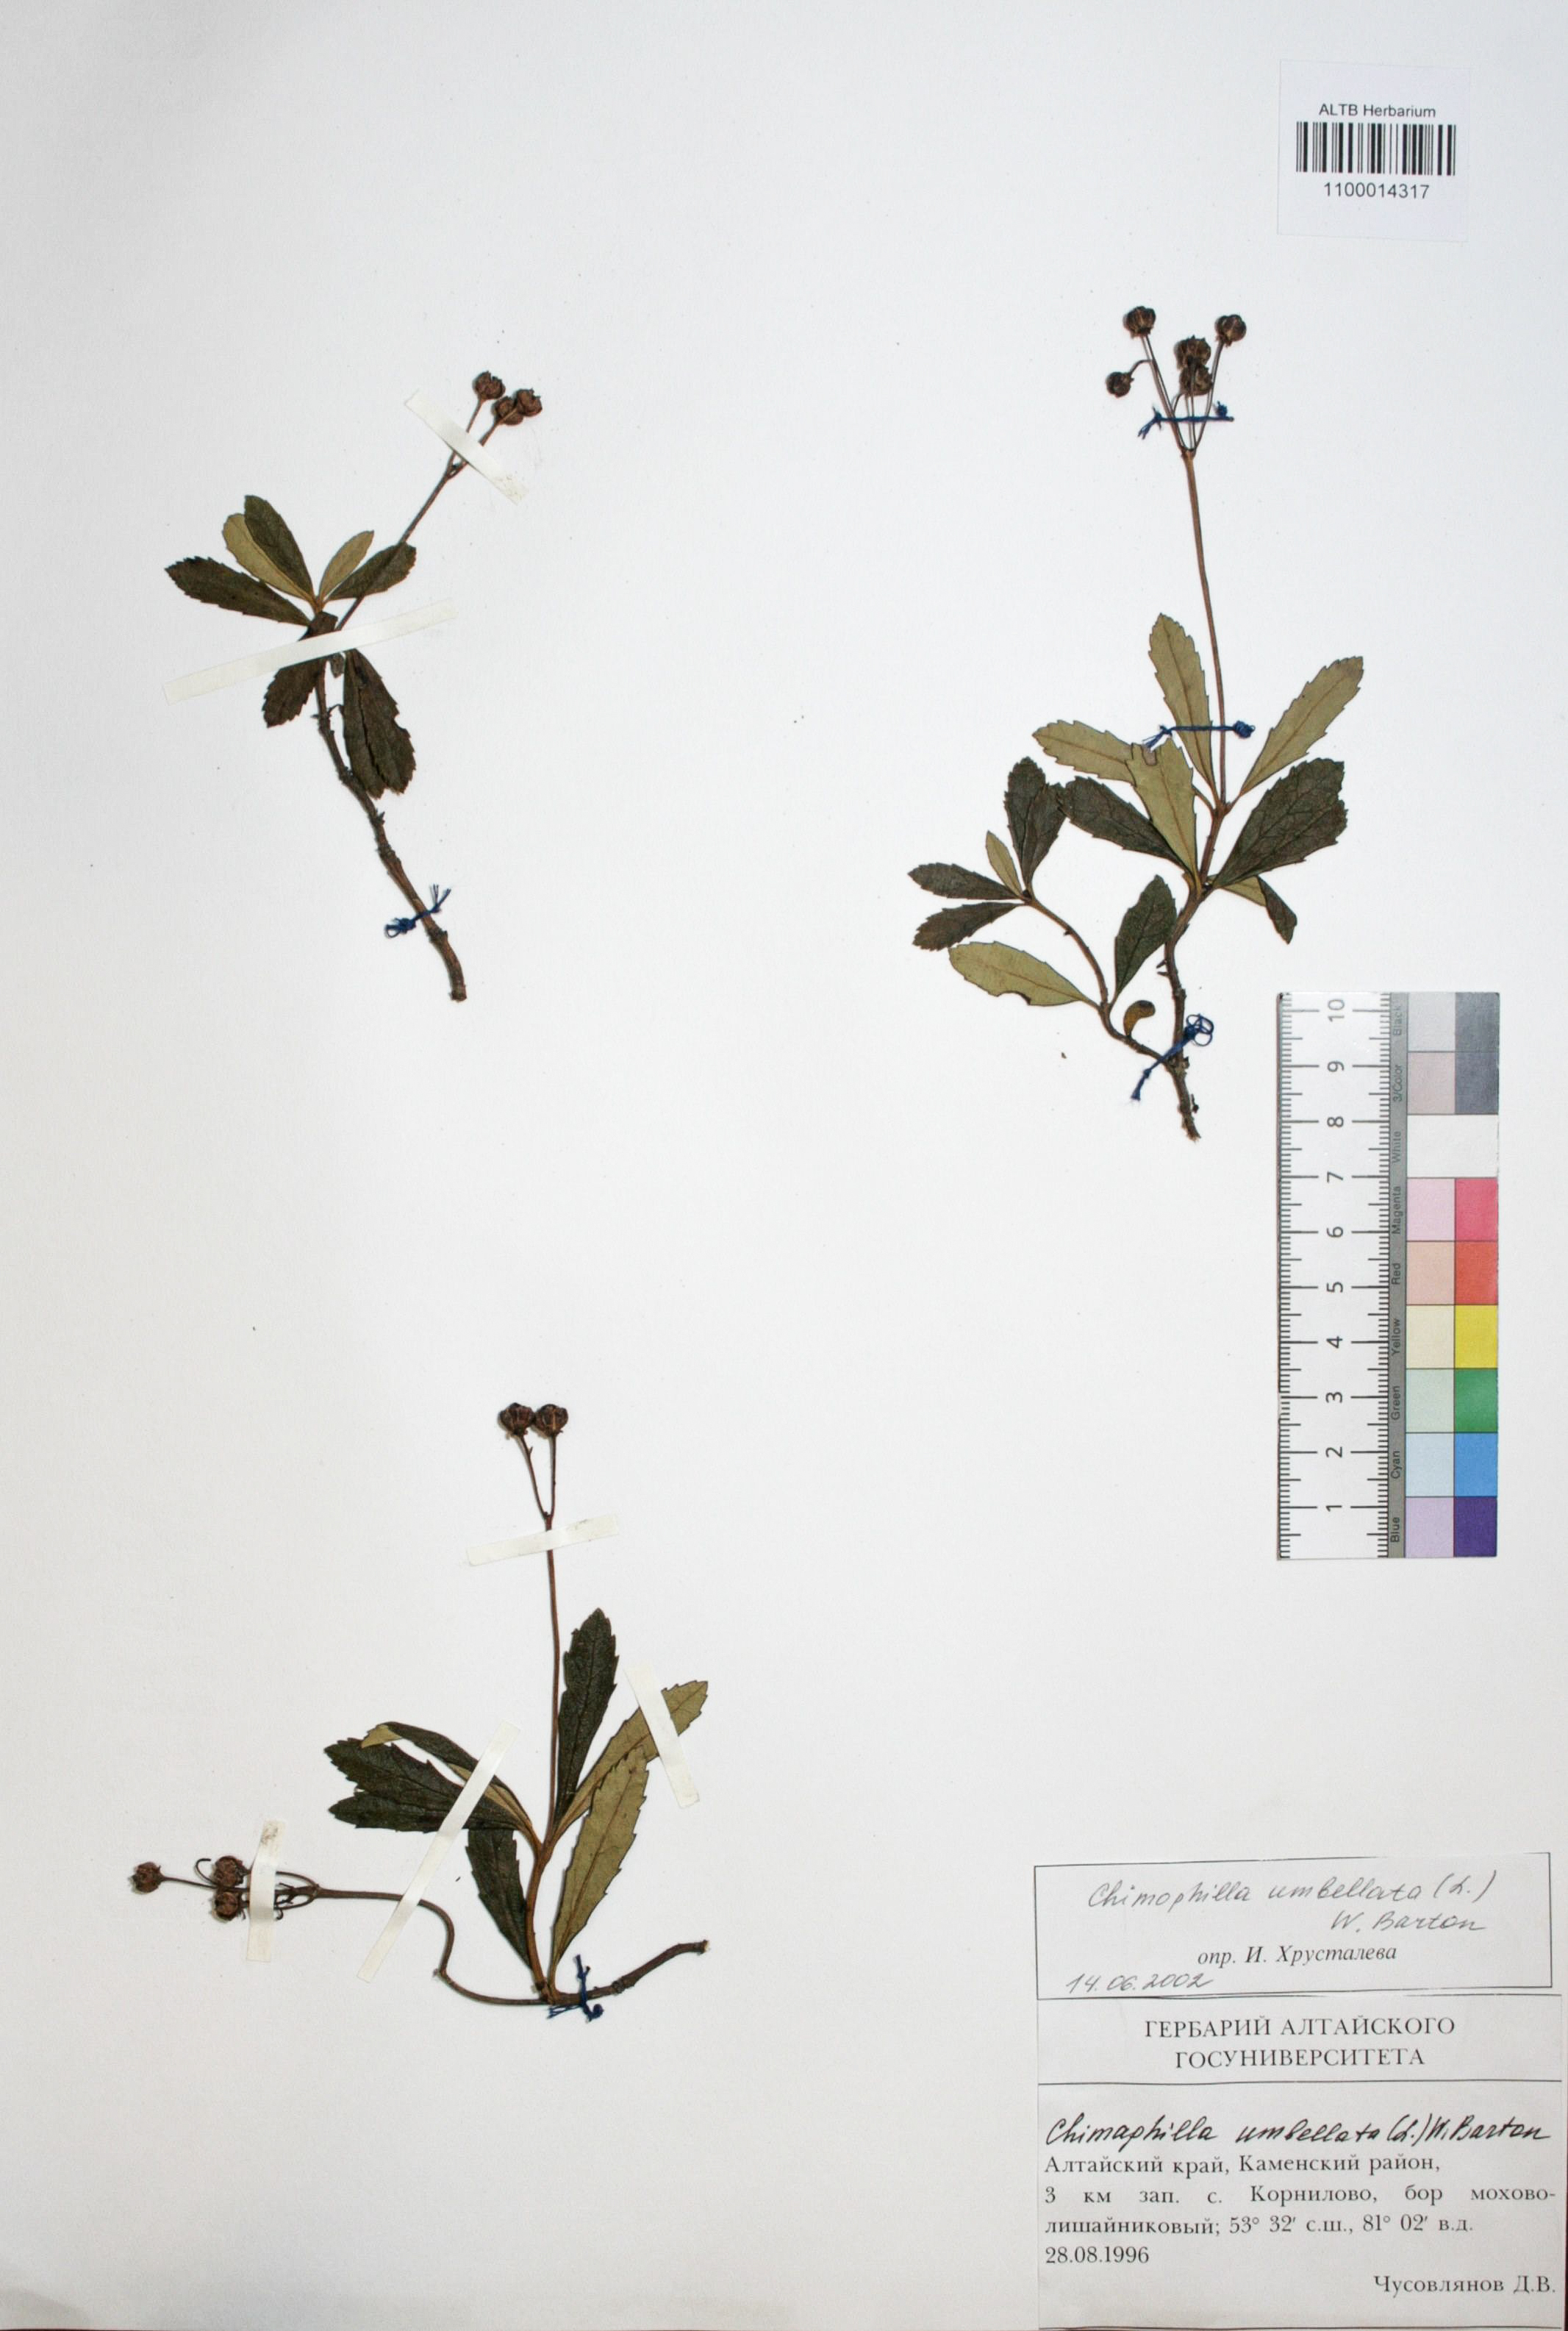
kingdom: Plantae
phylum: Tracheophyta
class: Magnoliopsida
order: Ericales
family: Ericaceae
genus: Chimaphila
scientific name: Chimaphila umbellata
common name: Pipsissewa
